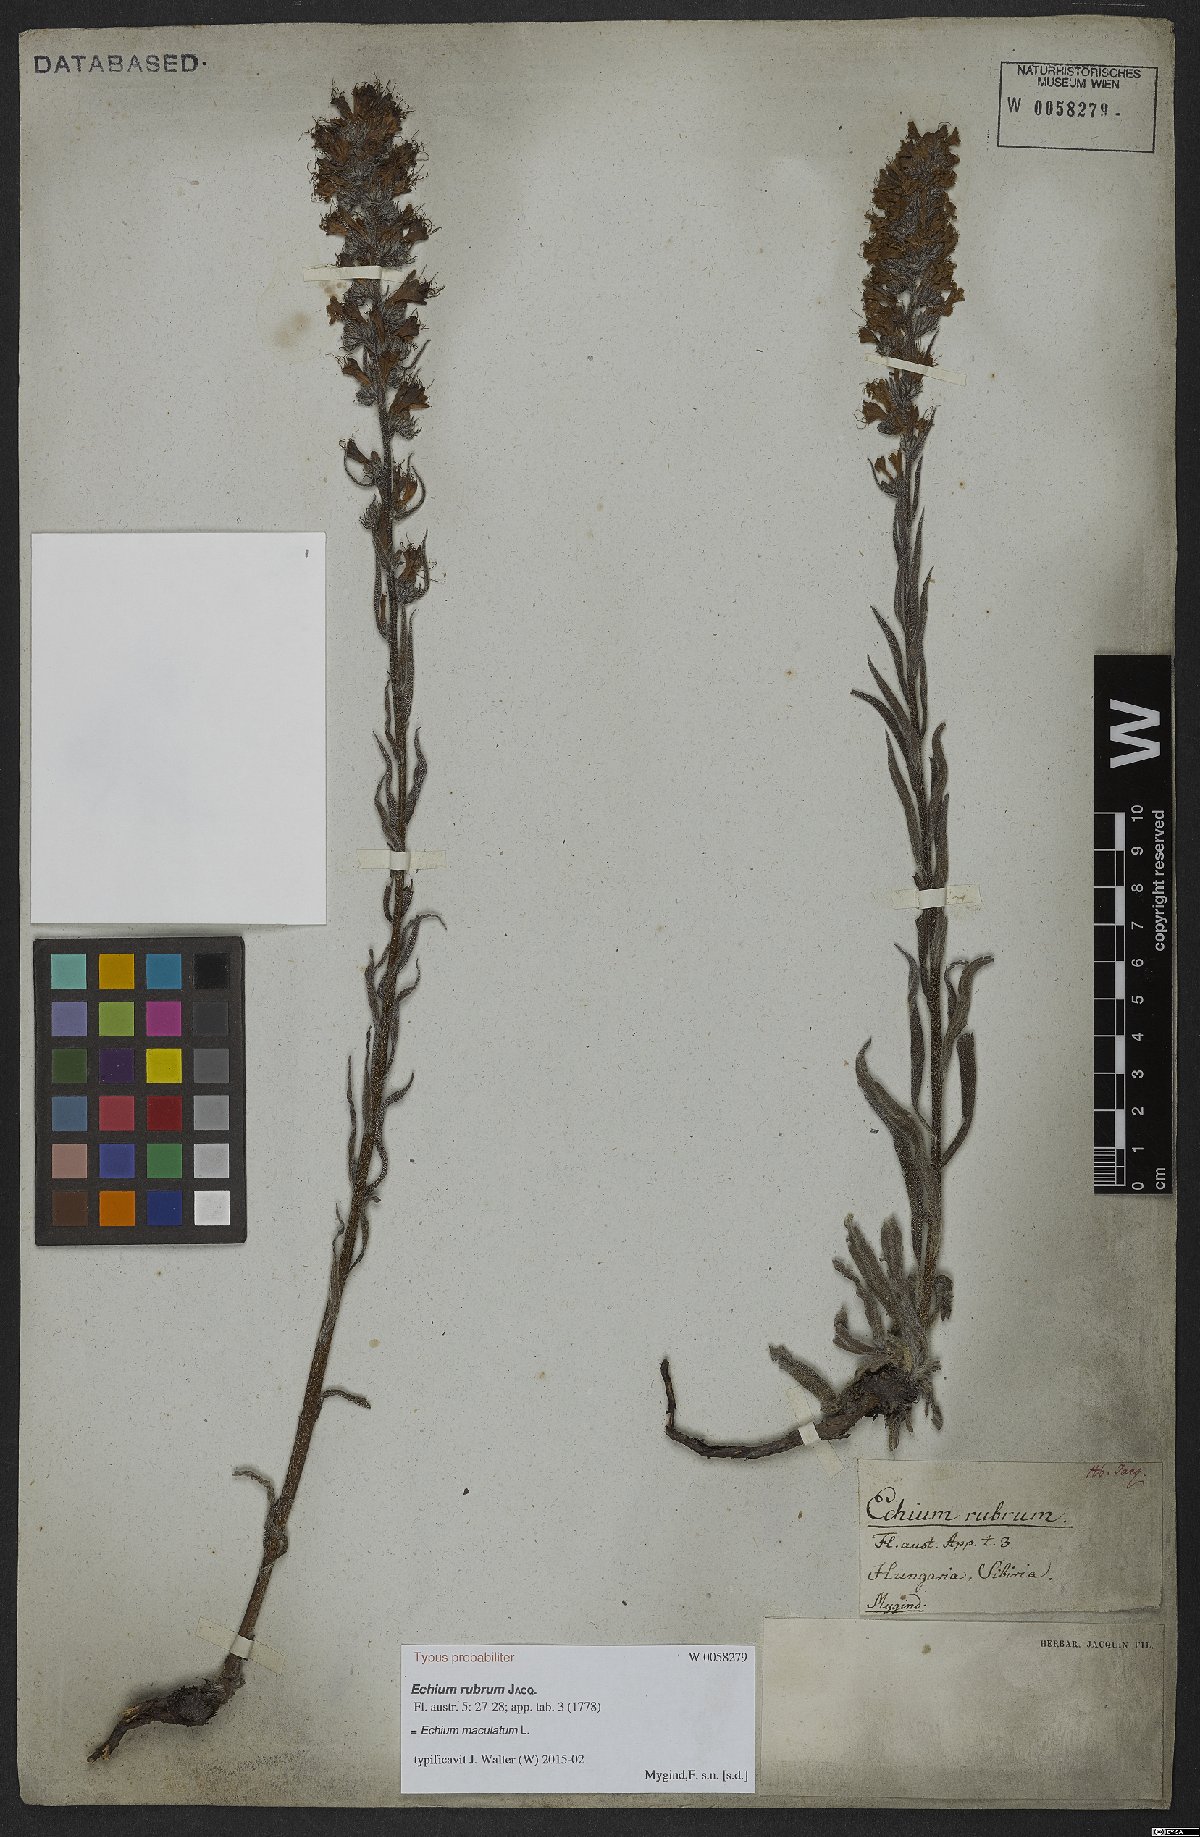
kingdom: Plantae
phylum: Tracheophyta
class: Magnoliopsida
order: Boraginales
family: Boraginaceae
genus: Pontechium
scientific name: Pontechium maculatum
